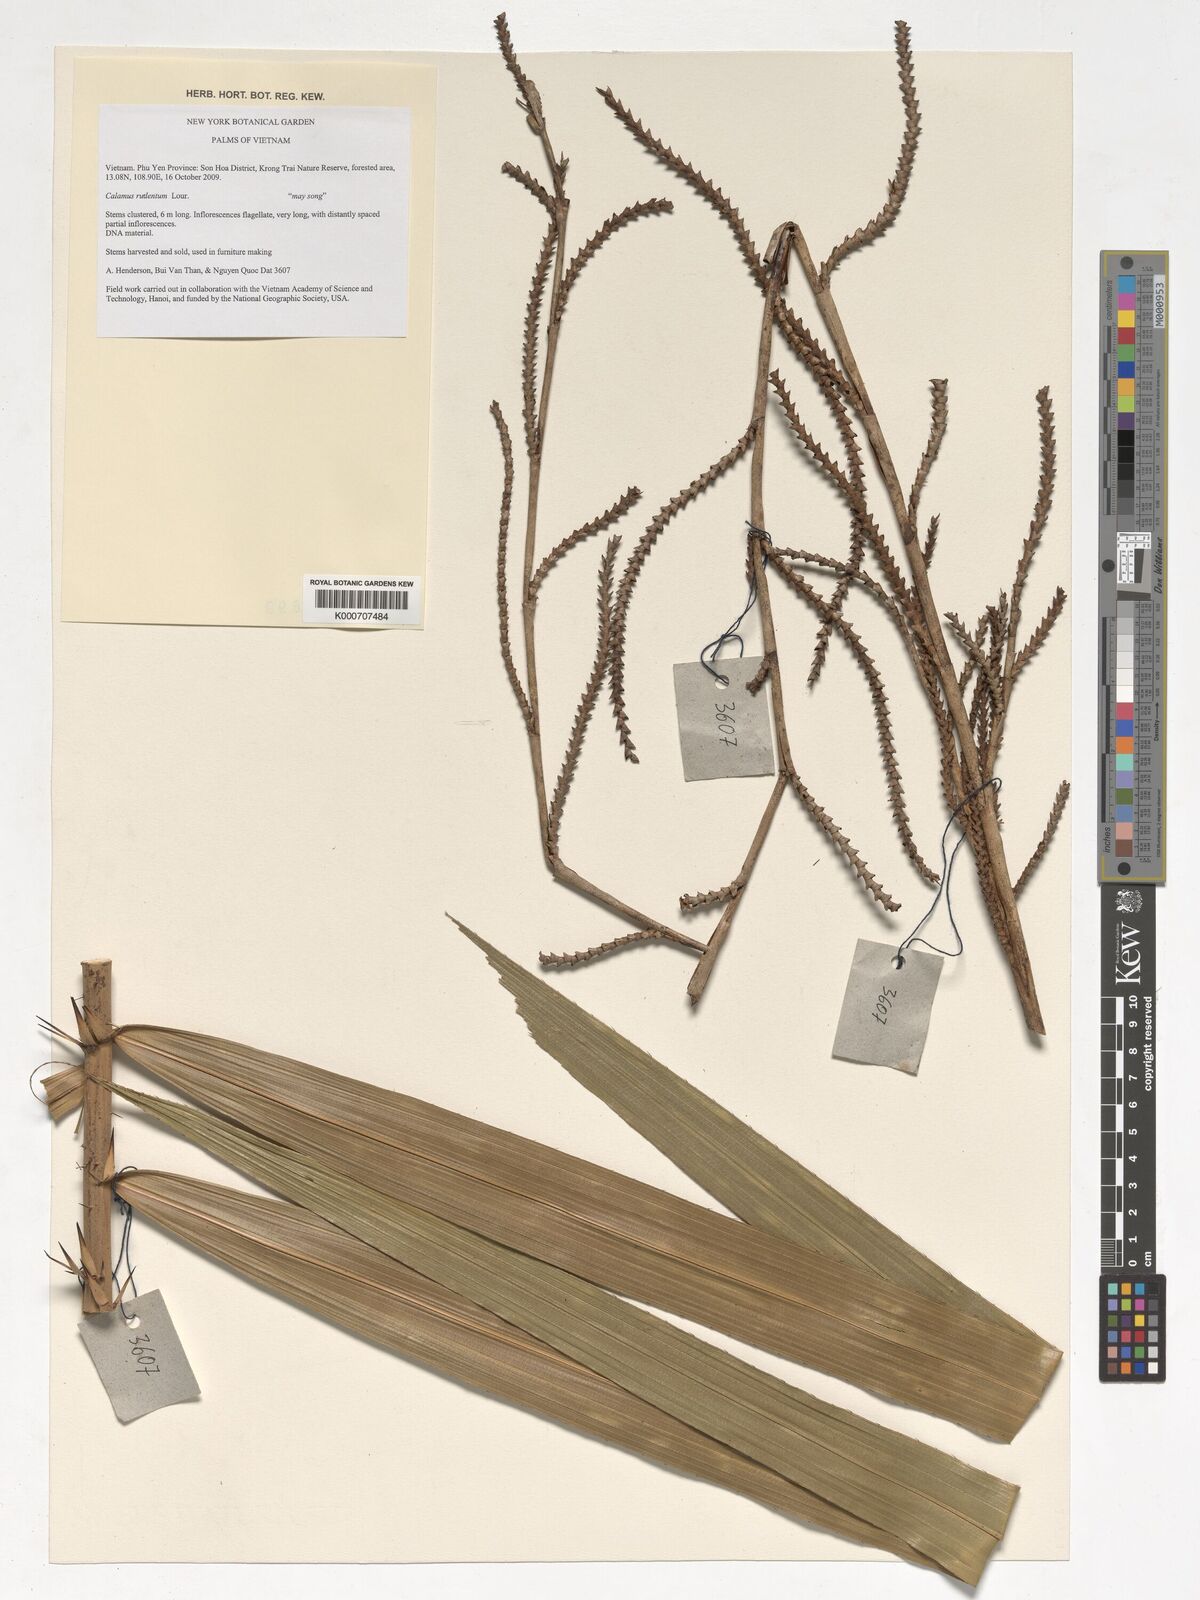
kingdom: Plantae
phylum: Tracheophyta
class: Liliopsida
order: Arecales
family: Arecaceae
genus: Calamus
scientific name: Calamus rudentum
